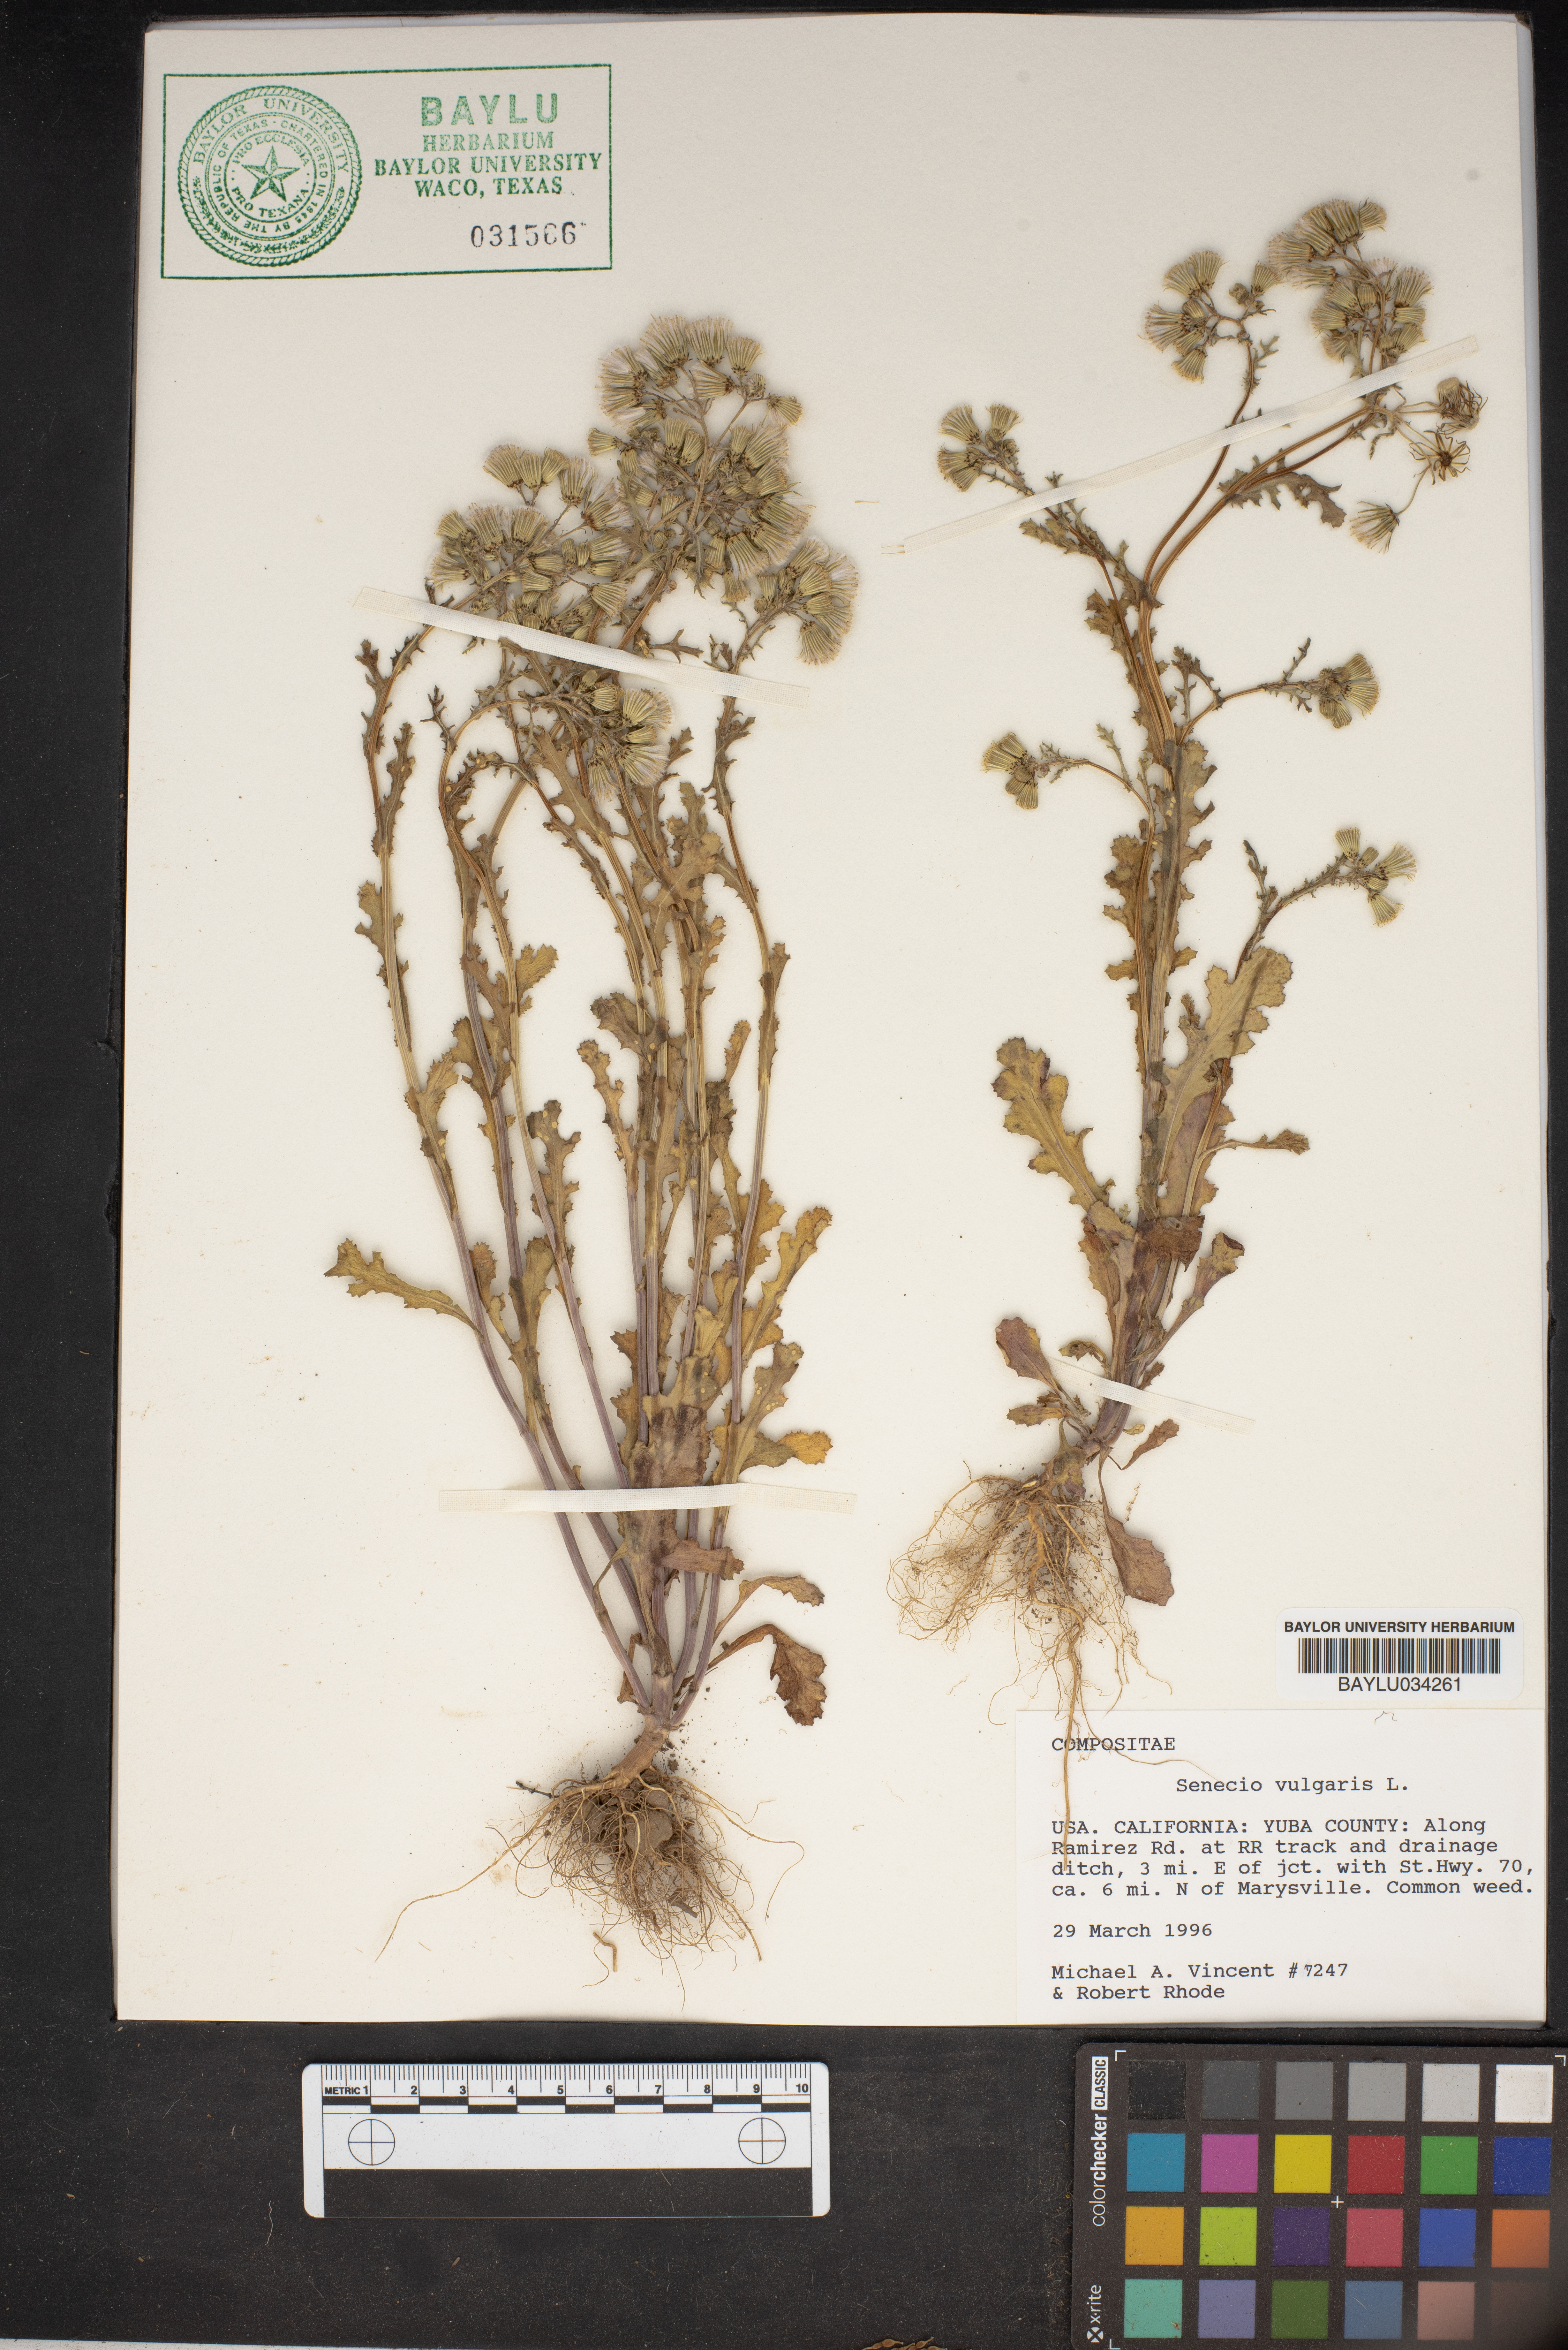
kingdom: Plantae
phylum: Tracheophyta
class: Magnoliopsida
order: Asterales
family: Asteraceae
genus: Senecio
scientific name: Senecio vulgaris
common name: Old-man-in-the-spring
